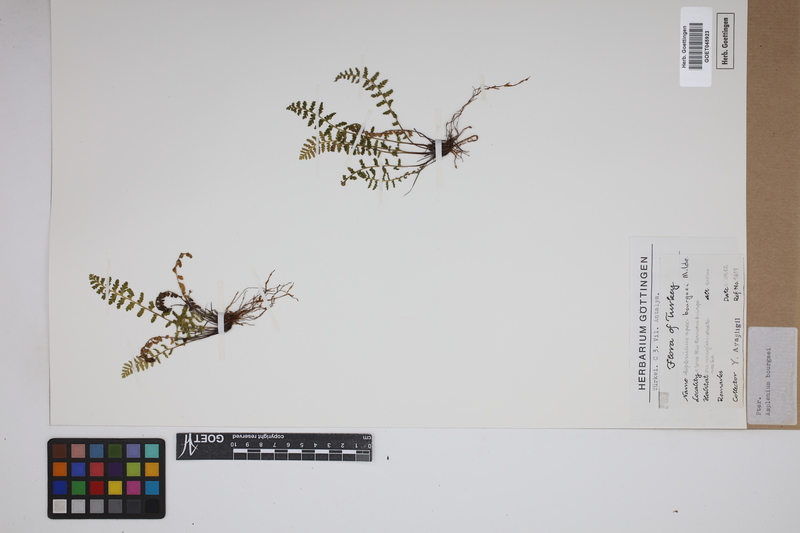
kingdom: Plantae
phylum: Tracheophyta
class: Polypodiopsida
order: Polypodiales
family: Aspleniaceae
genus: Asplenium
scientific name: Asplenium bourgaei
